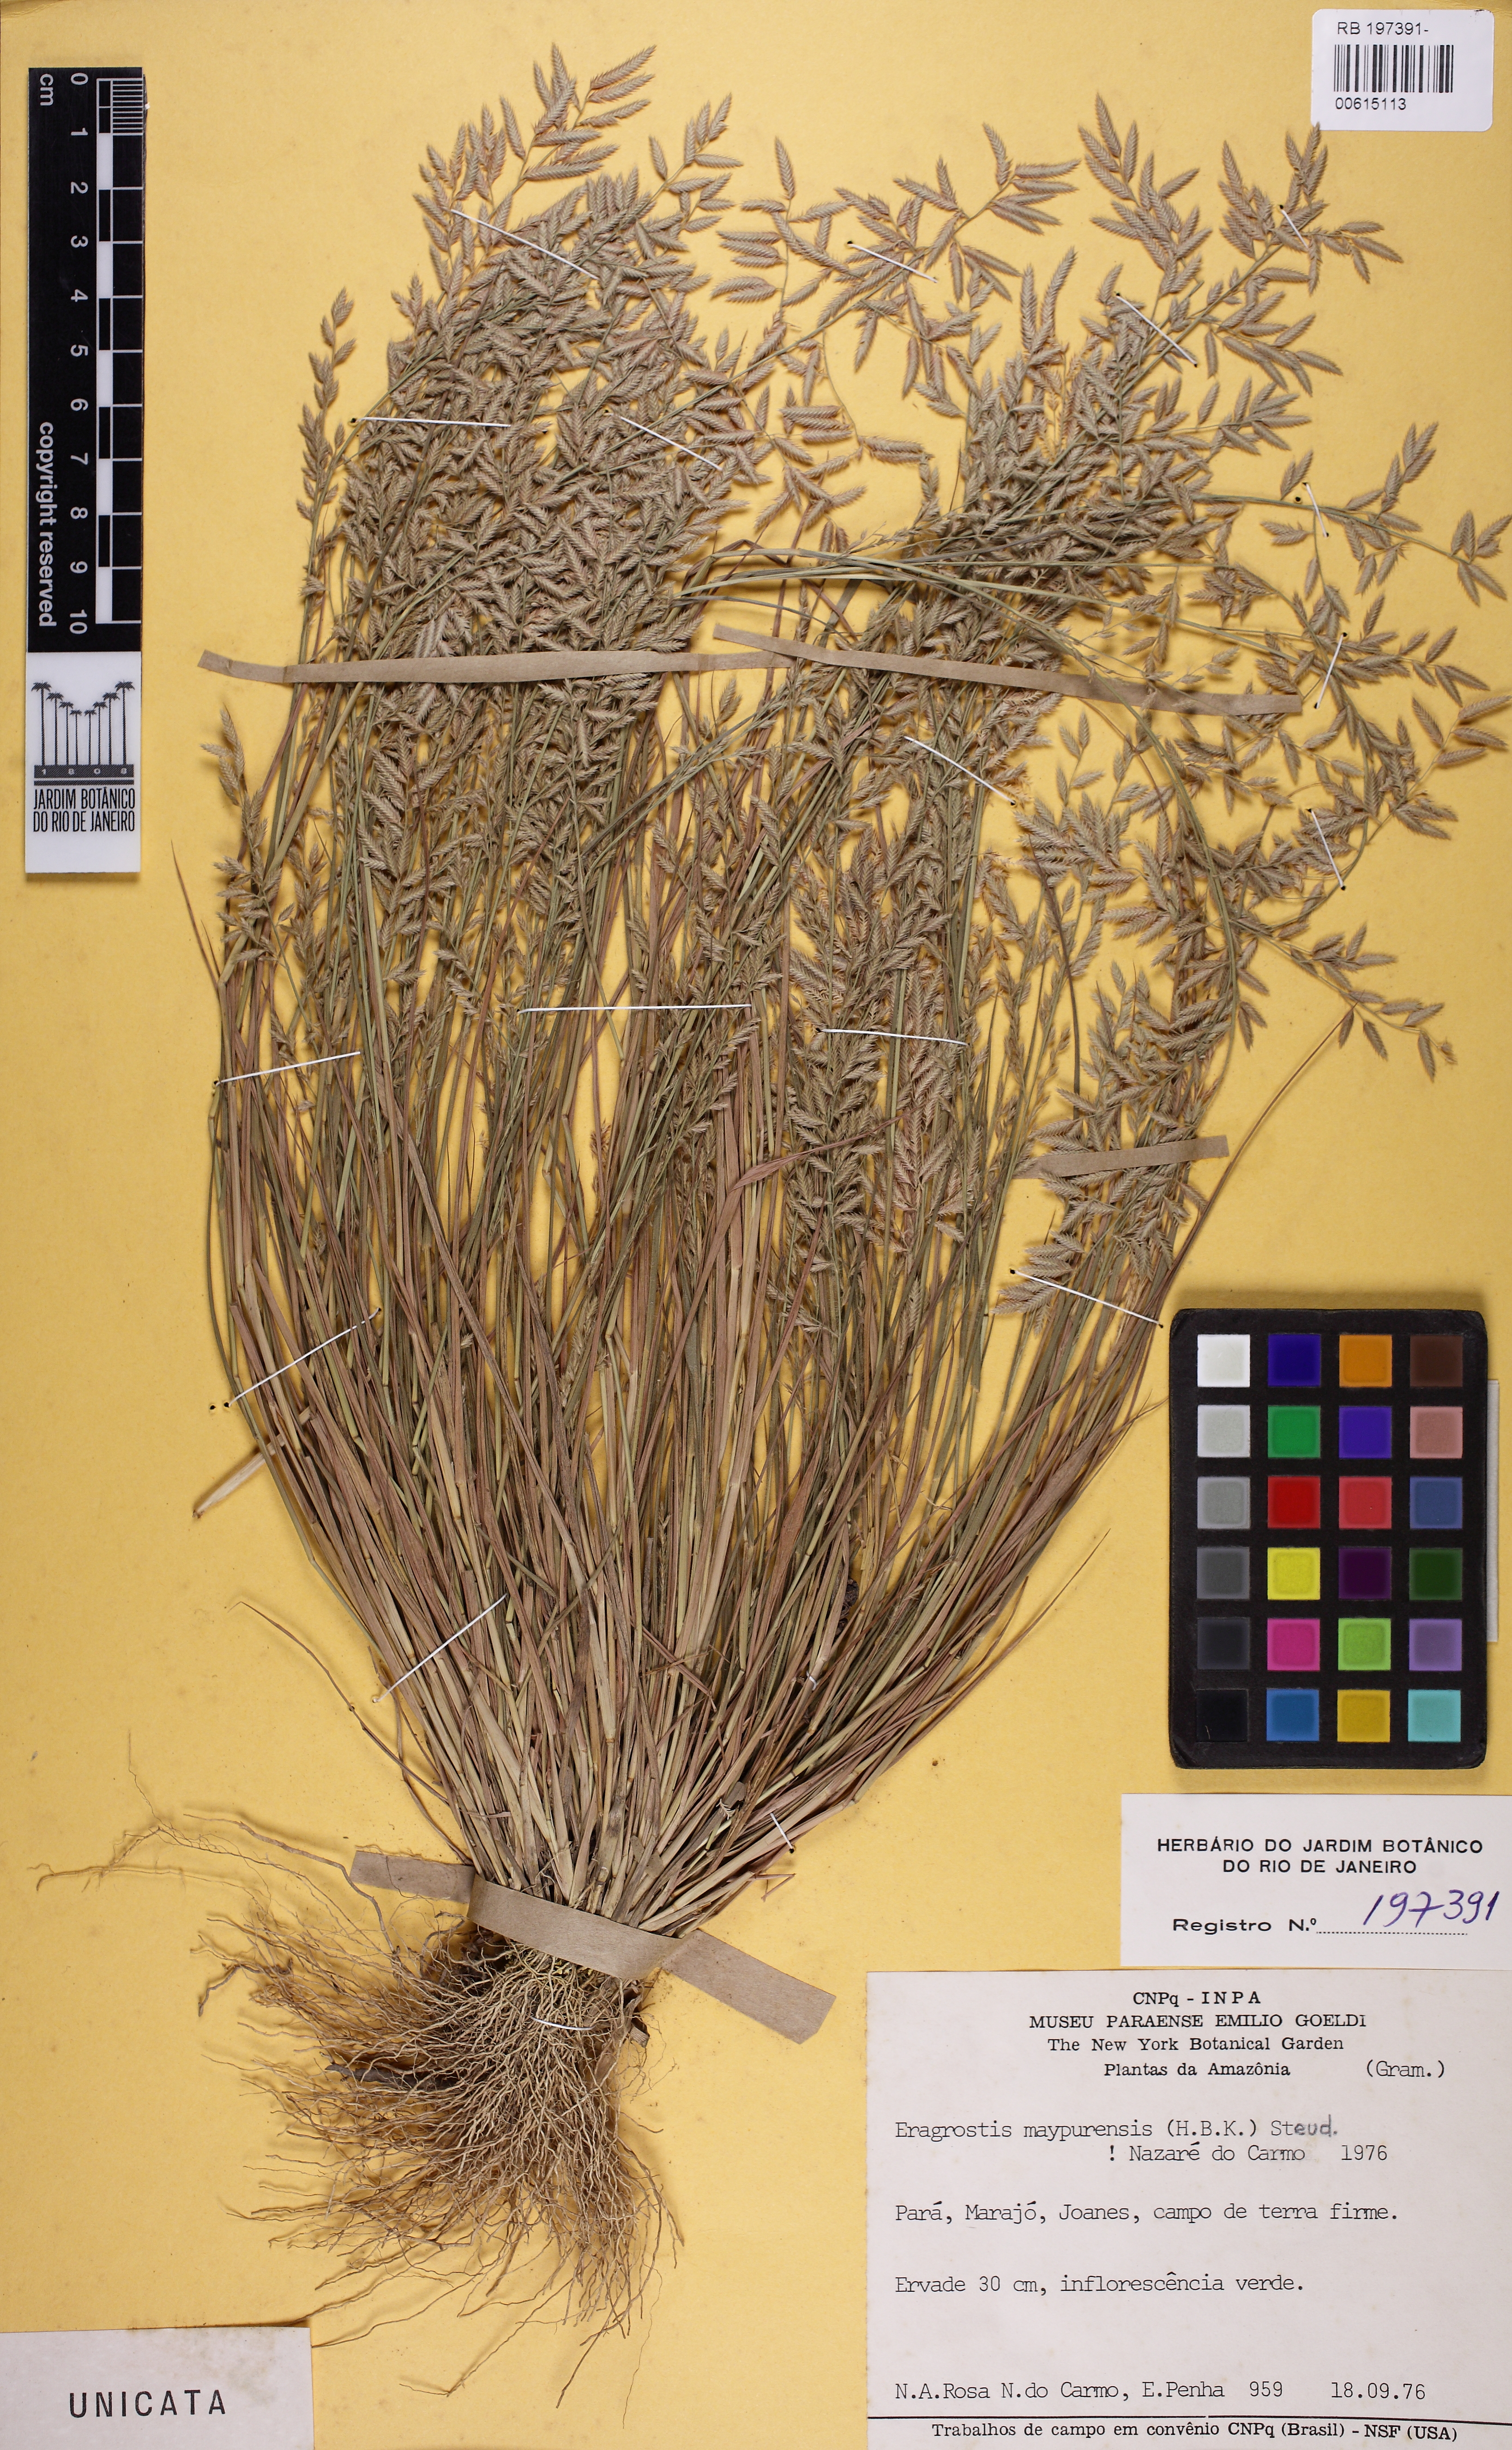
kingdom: Plantae
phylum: Tracheophyta
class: Liliopsida
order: Poales
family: Poaceae
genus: Eragrostis
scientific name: Eragrostis maypurensis
